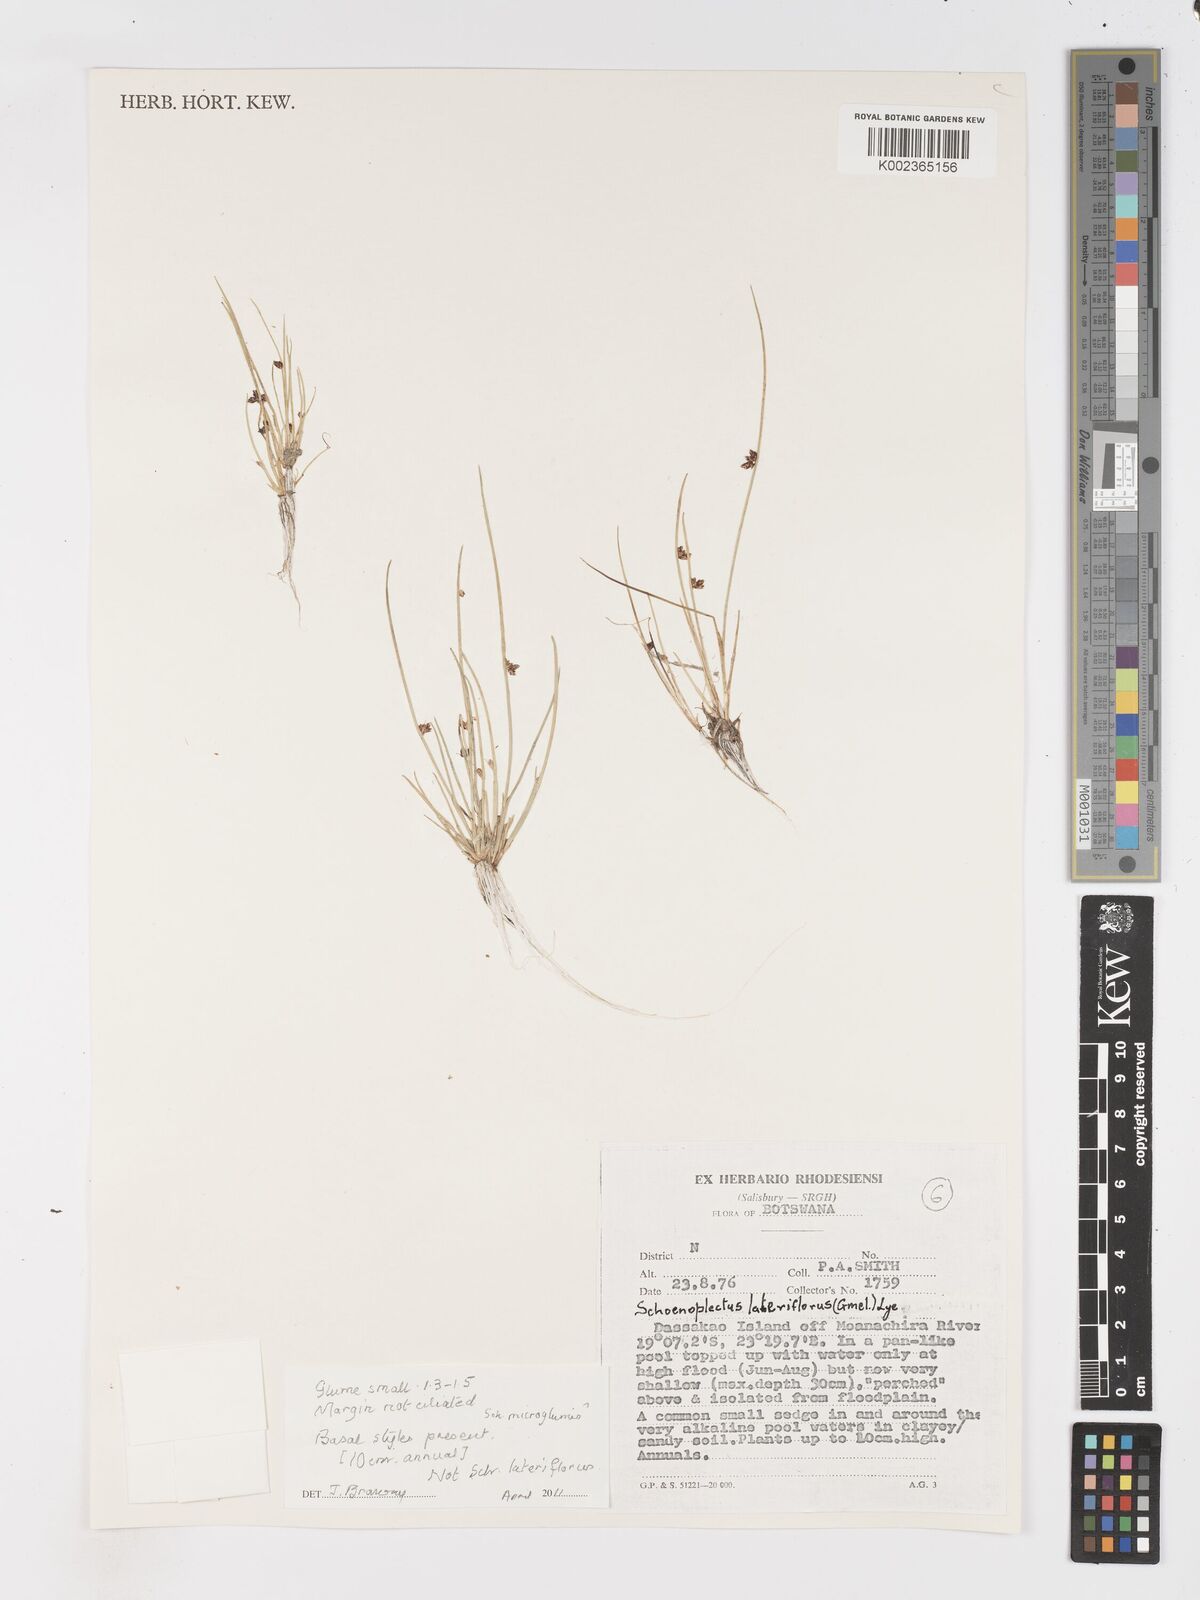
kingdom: Plantae
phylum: Tracheophyta
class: Liliopsida
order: Poales
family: Cyperaceae
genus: Schoenoplectiella
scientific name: Schoenoplectiella microglumis
